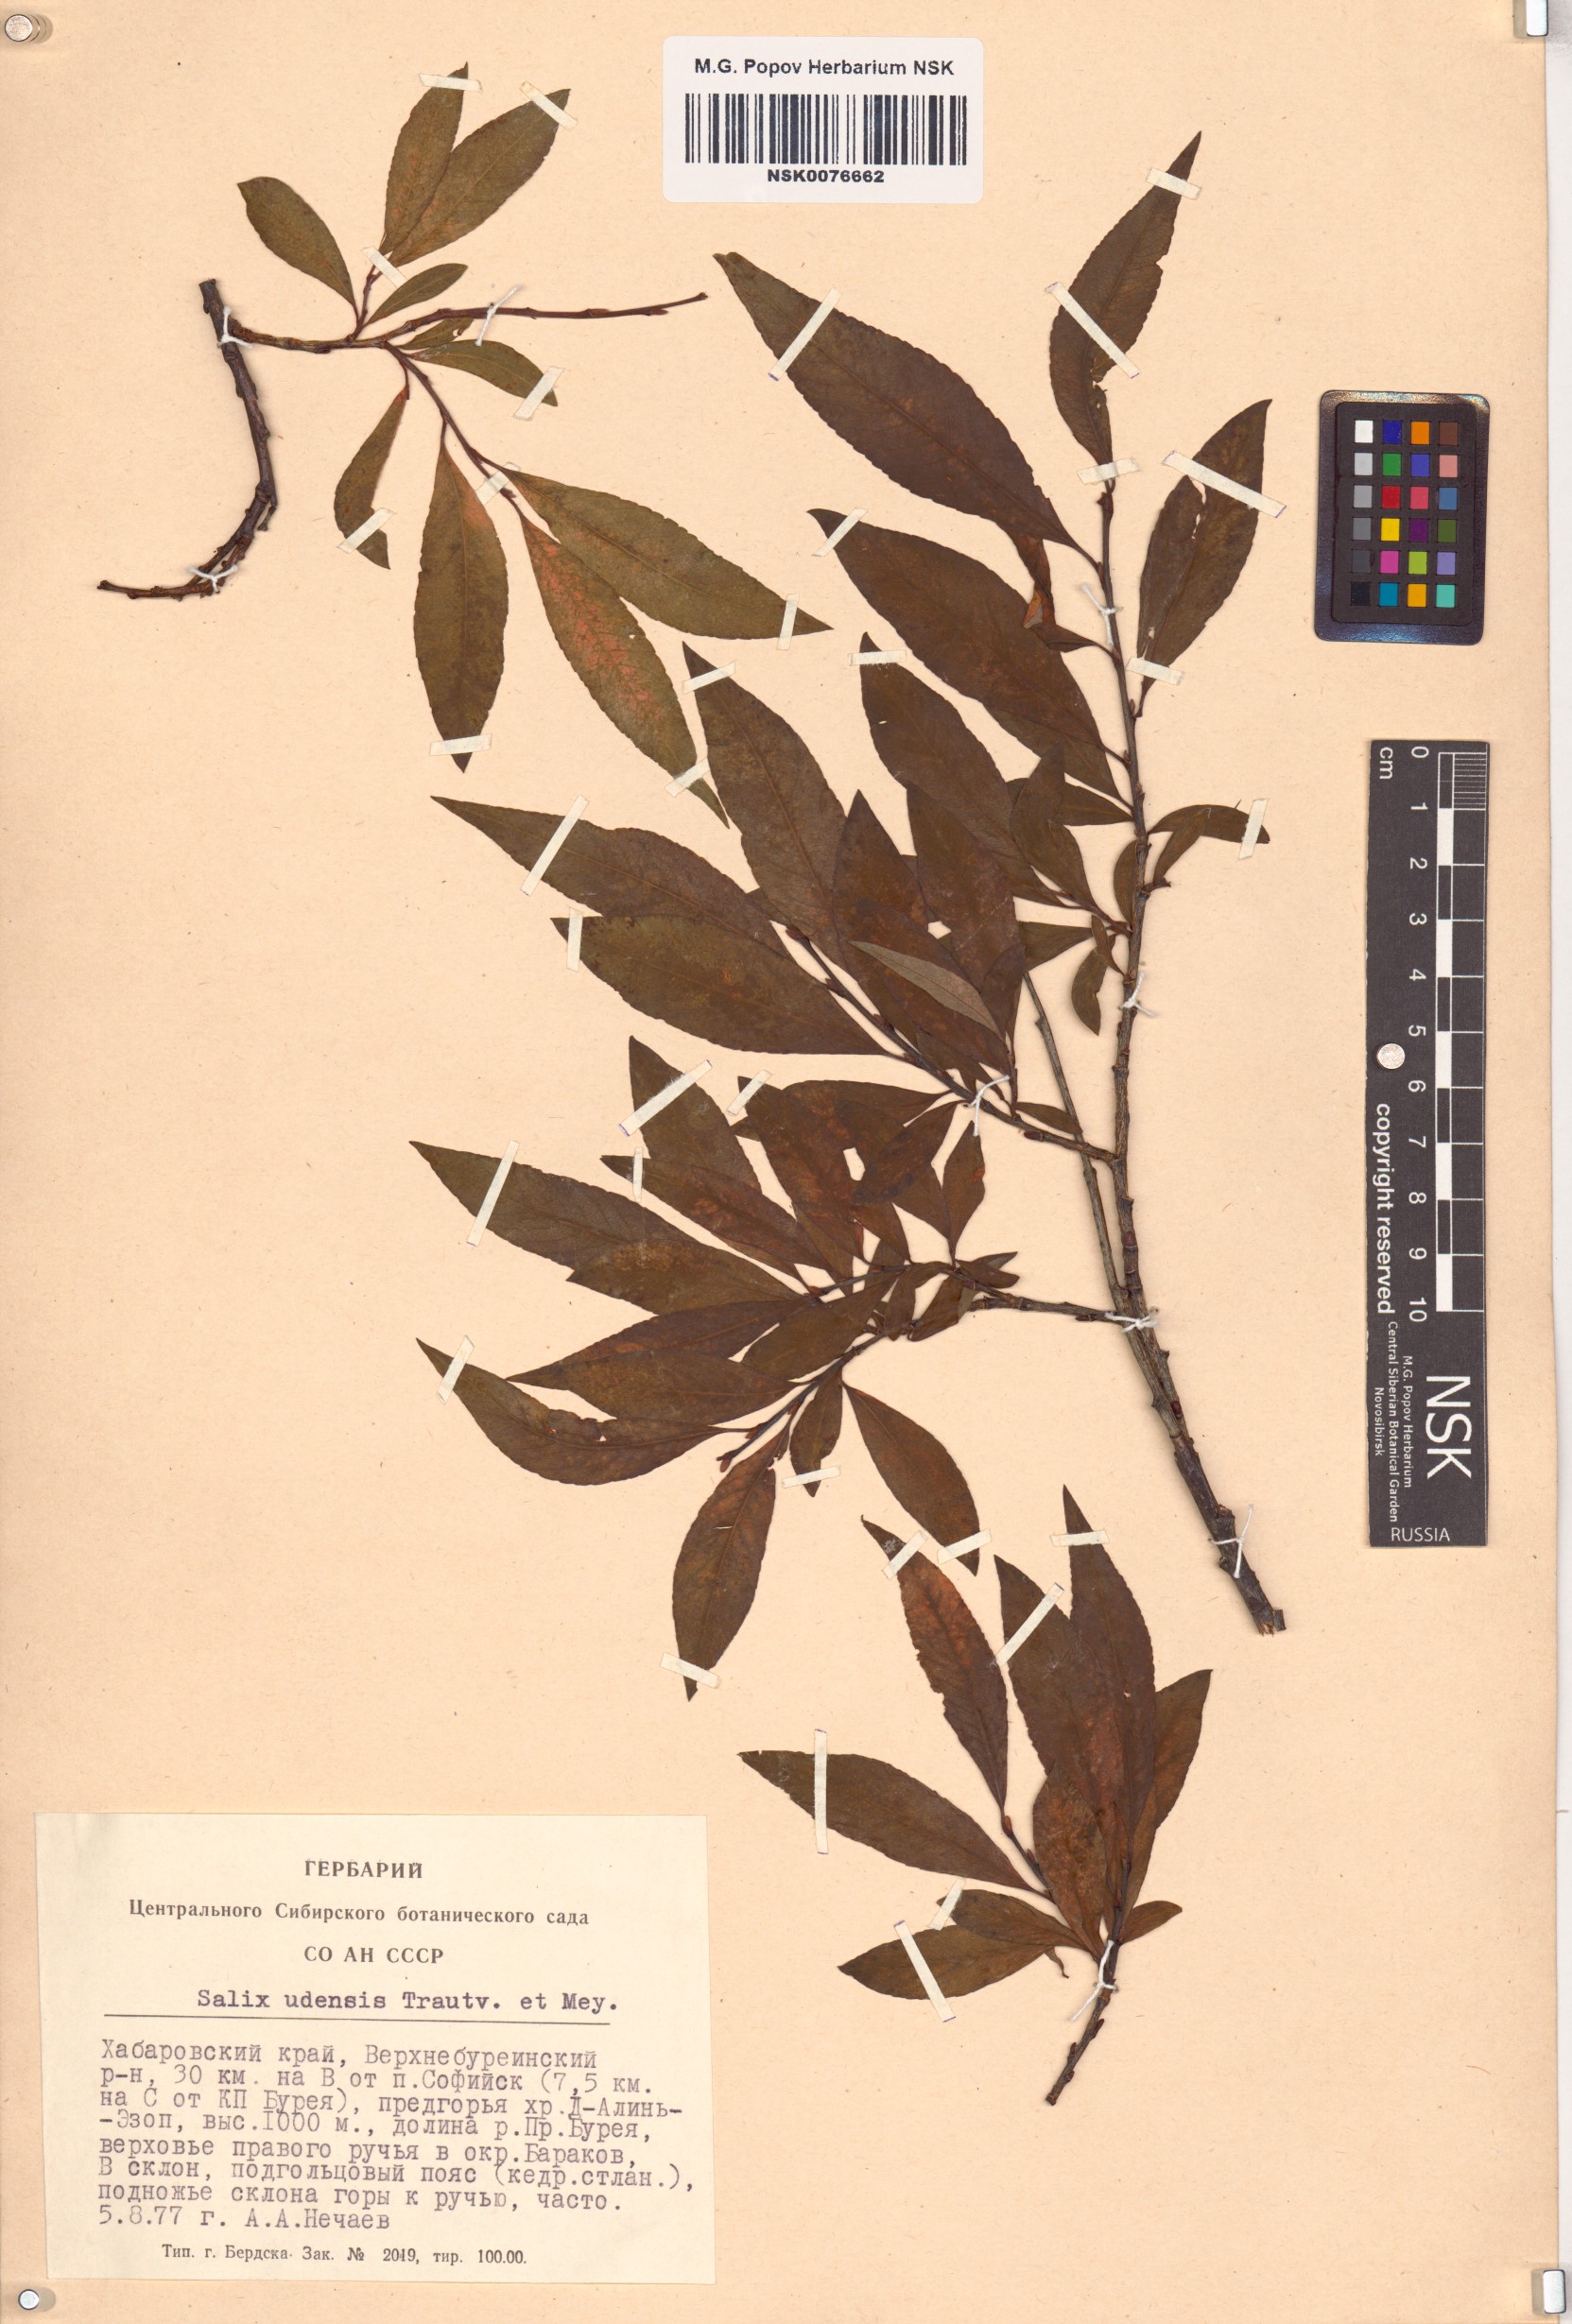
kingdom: Plantae
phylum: Tracheophyta
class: Magnoliopsida
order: Malpighiales
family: Salicaceae
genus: Salix
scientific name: Salix udensis
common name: Sachalin willow
